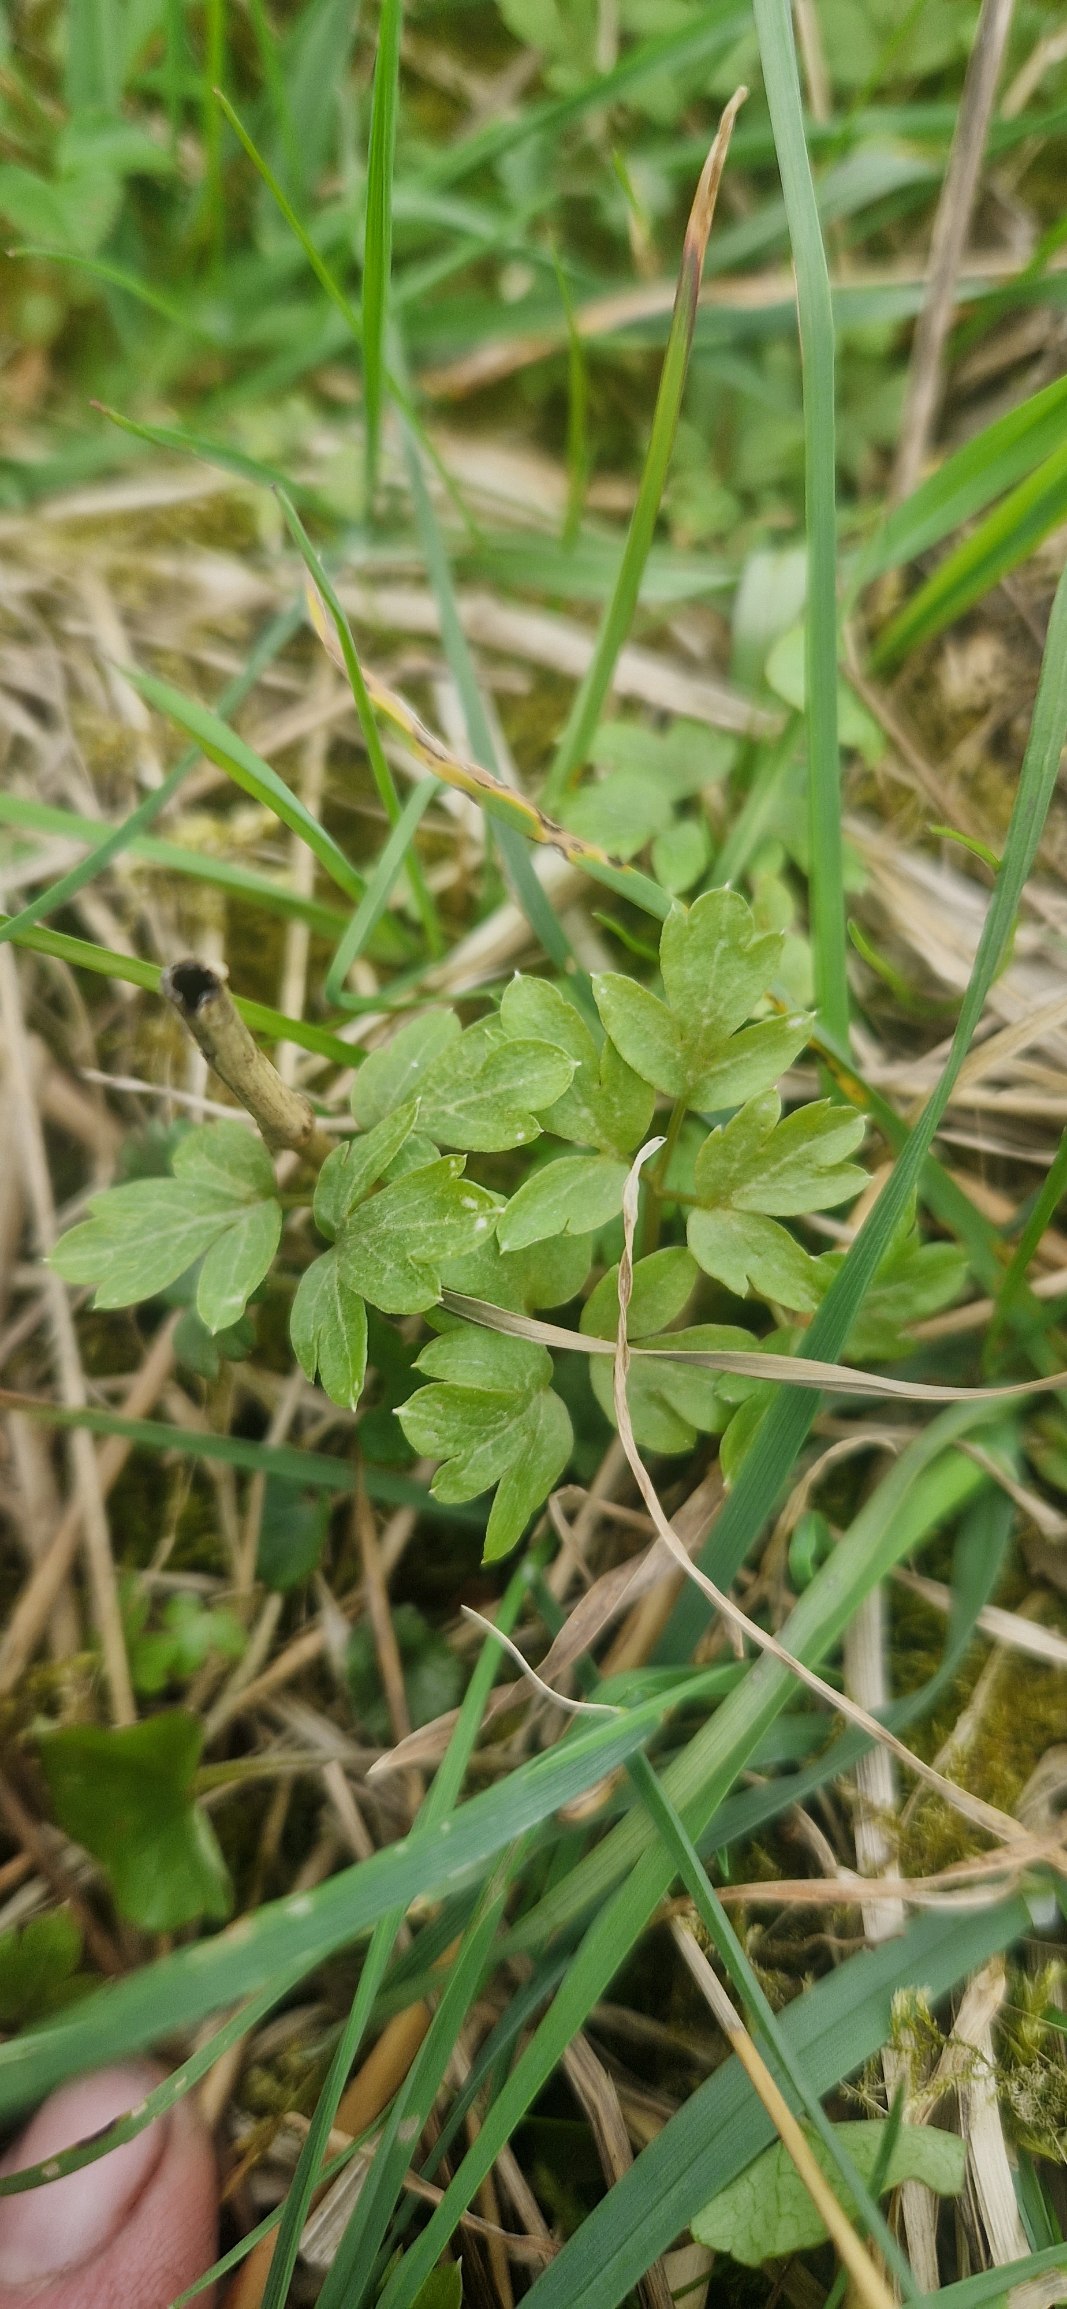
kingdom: Plantae
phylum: Tracheophyta
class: Magnoliopsida
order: Dipsacales
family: Viburnaceae
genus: Adoxa
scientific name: Adoxa moschatellina
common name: Desmerurt
